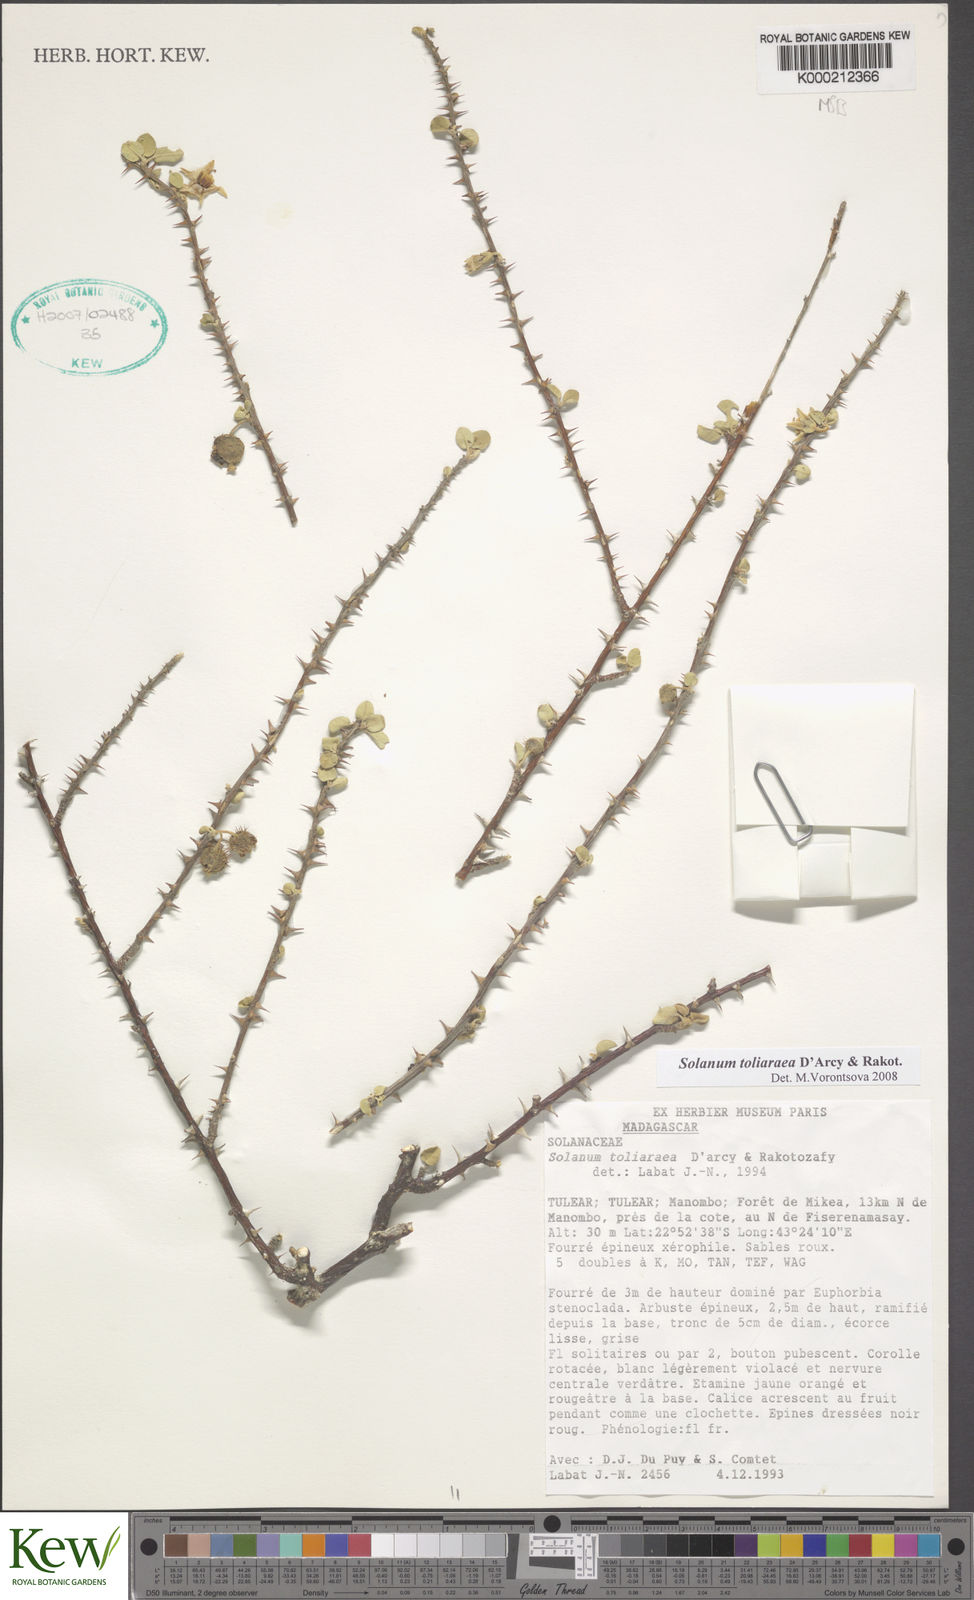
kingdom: Plantae
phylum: Tracheophyta
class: Magnoliopsida
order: Solanales
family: Solanaceae
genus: Solanum
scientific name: Solanum toliaraea
